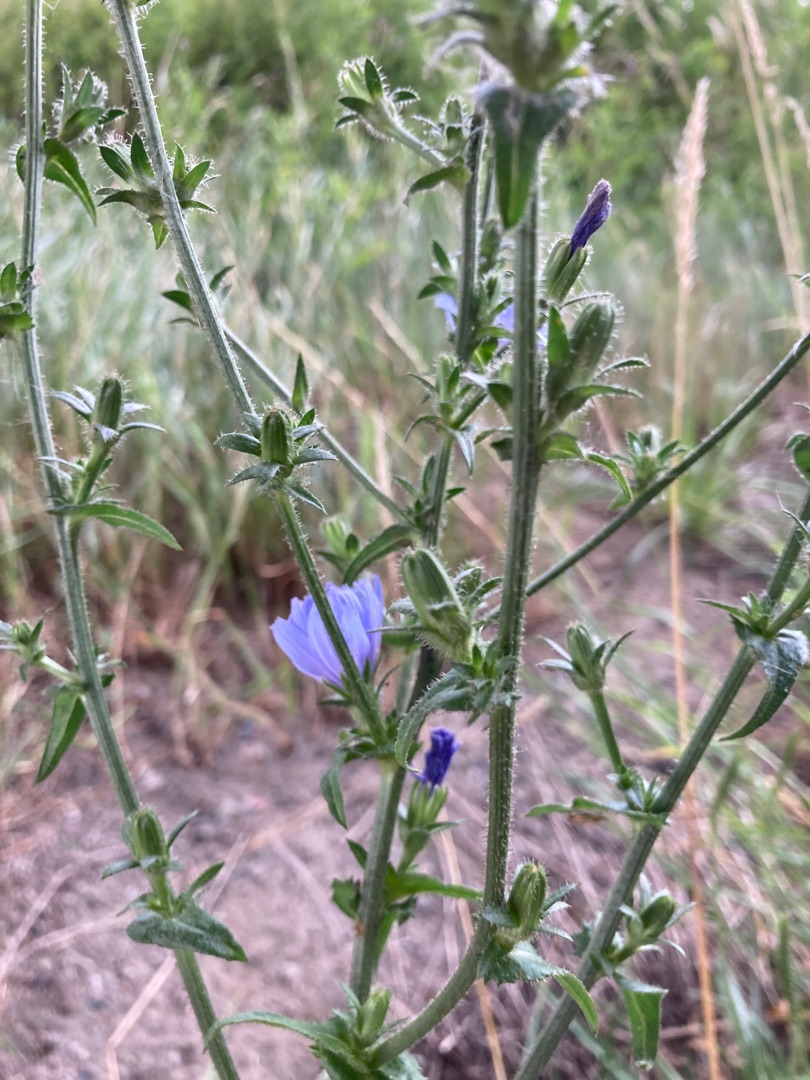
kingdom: Plantae
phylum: Tracheophyta
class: Magnoliopsida
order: Asterales
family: Asteraceae
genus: Cichorium
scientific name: Cichorium intybus
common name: Cikorie
